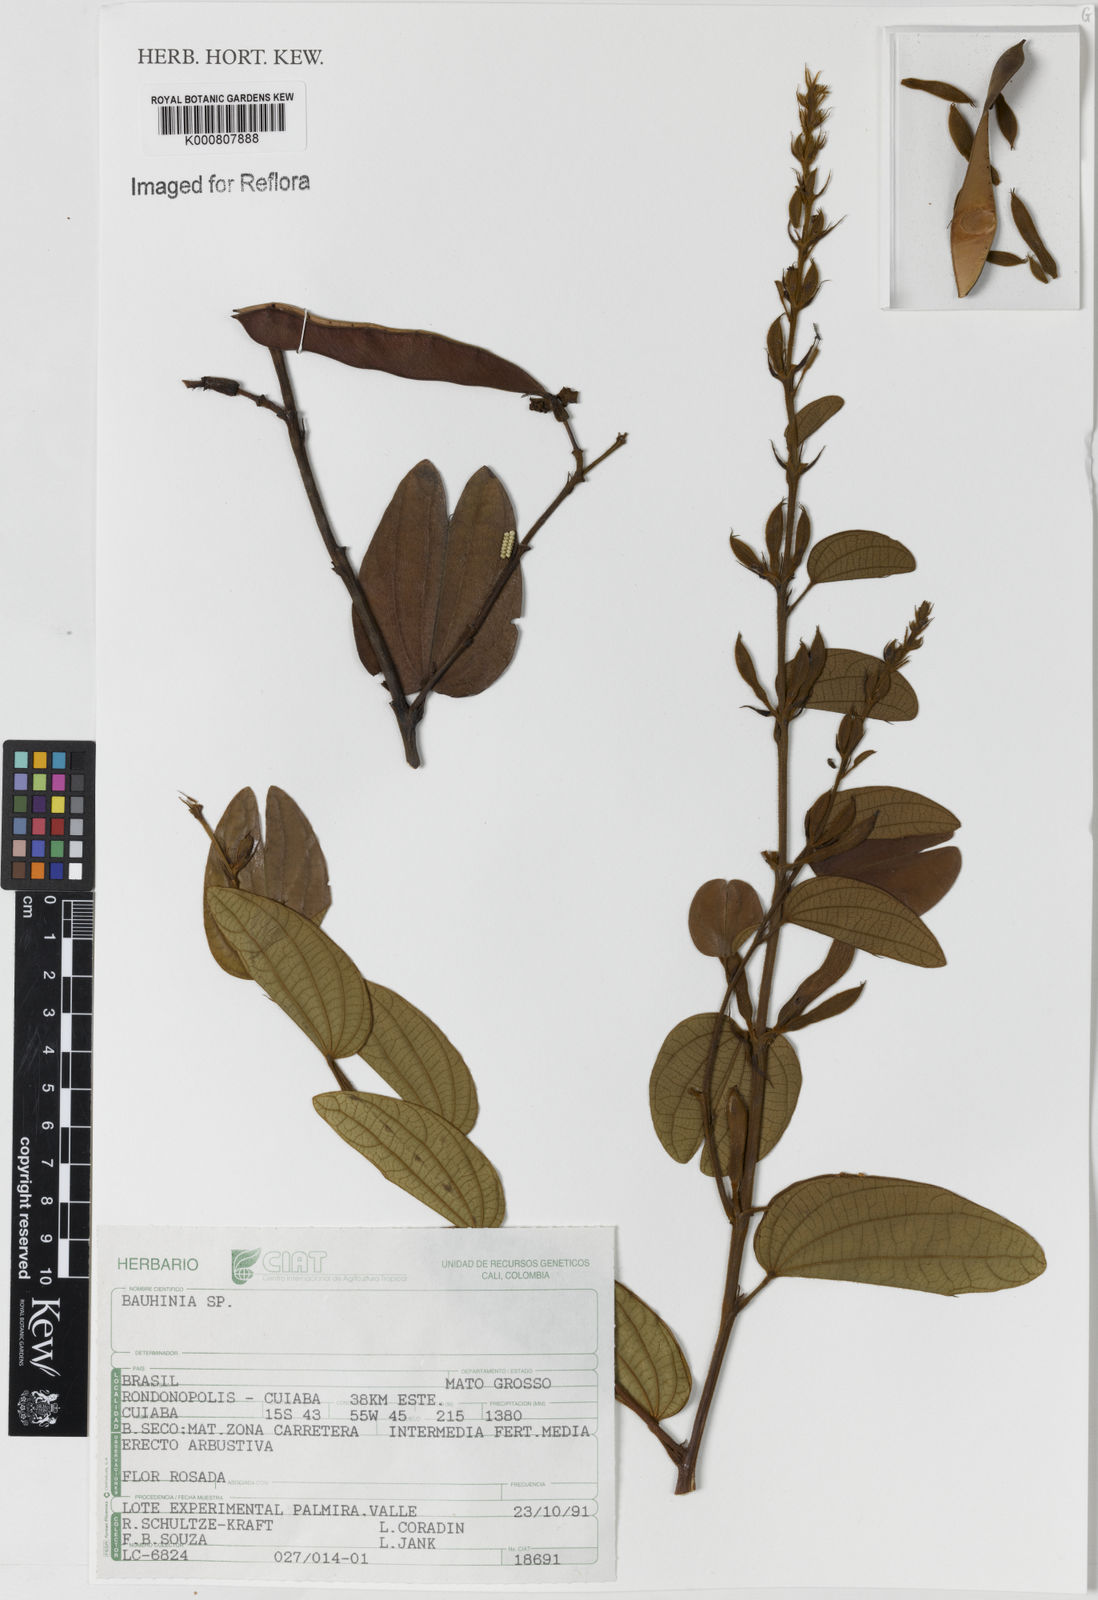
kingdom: Plantae
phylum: Tracheophyta
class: Magnoliopsida
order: Fabales
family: Fabaceae
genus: Bauhinia
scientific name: Bauhinia
